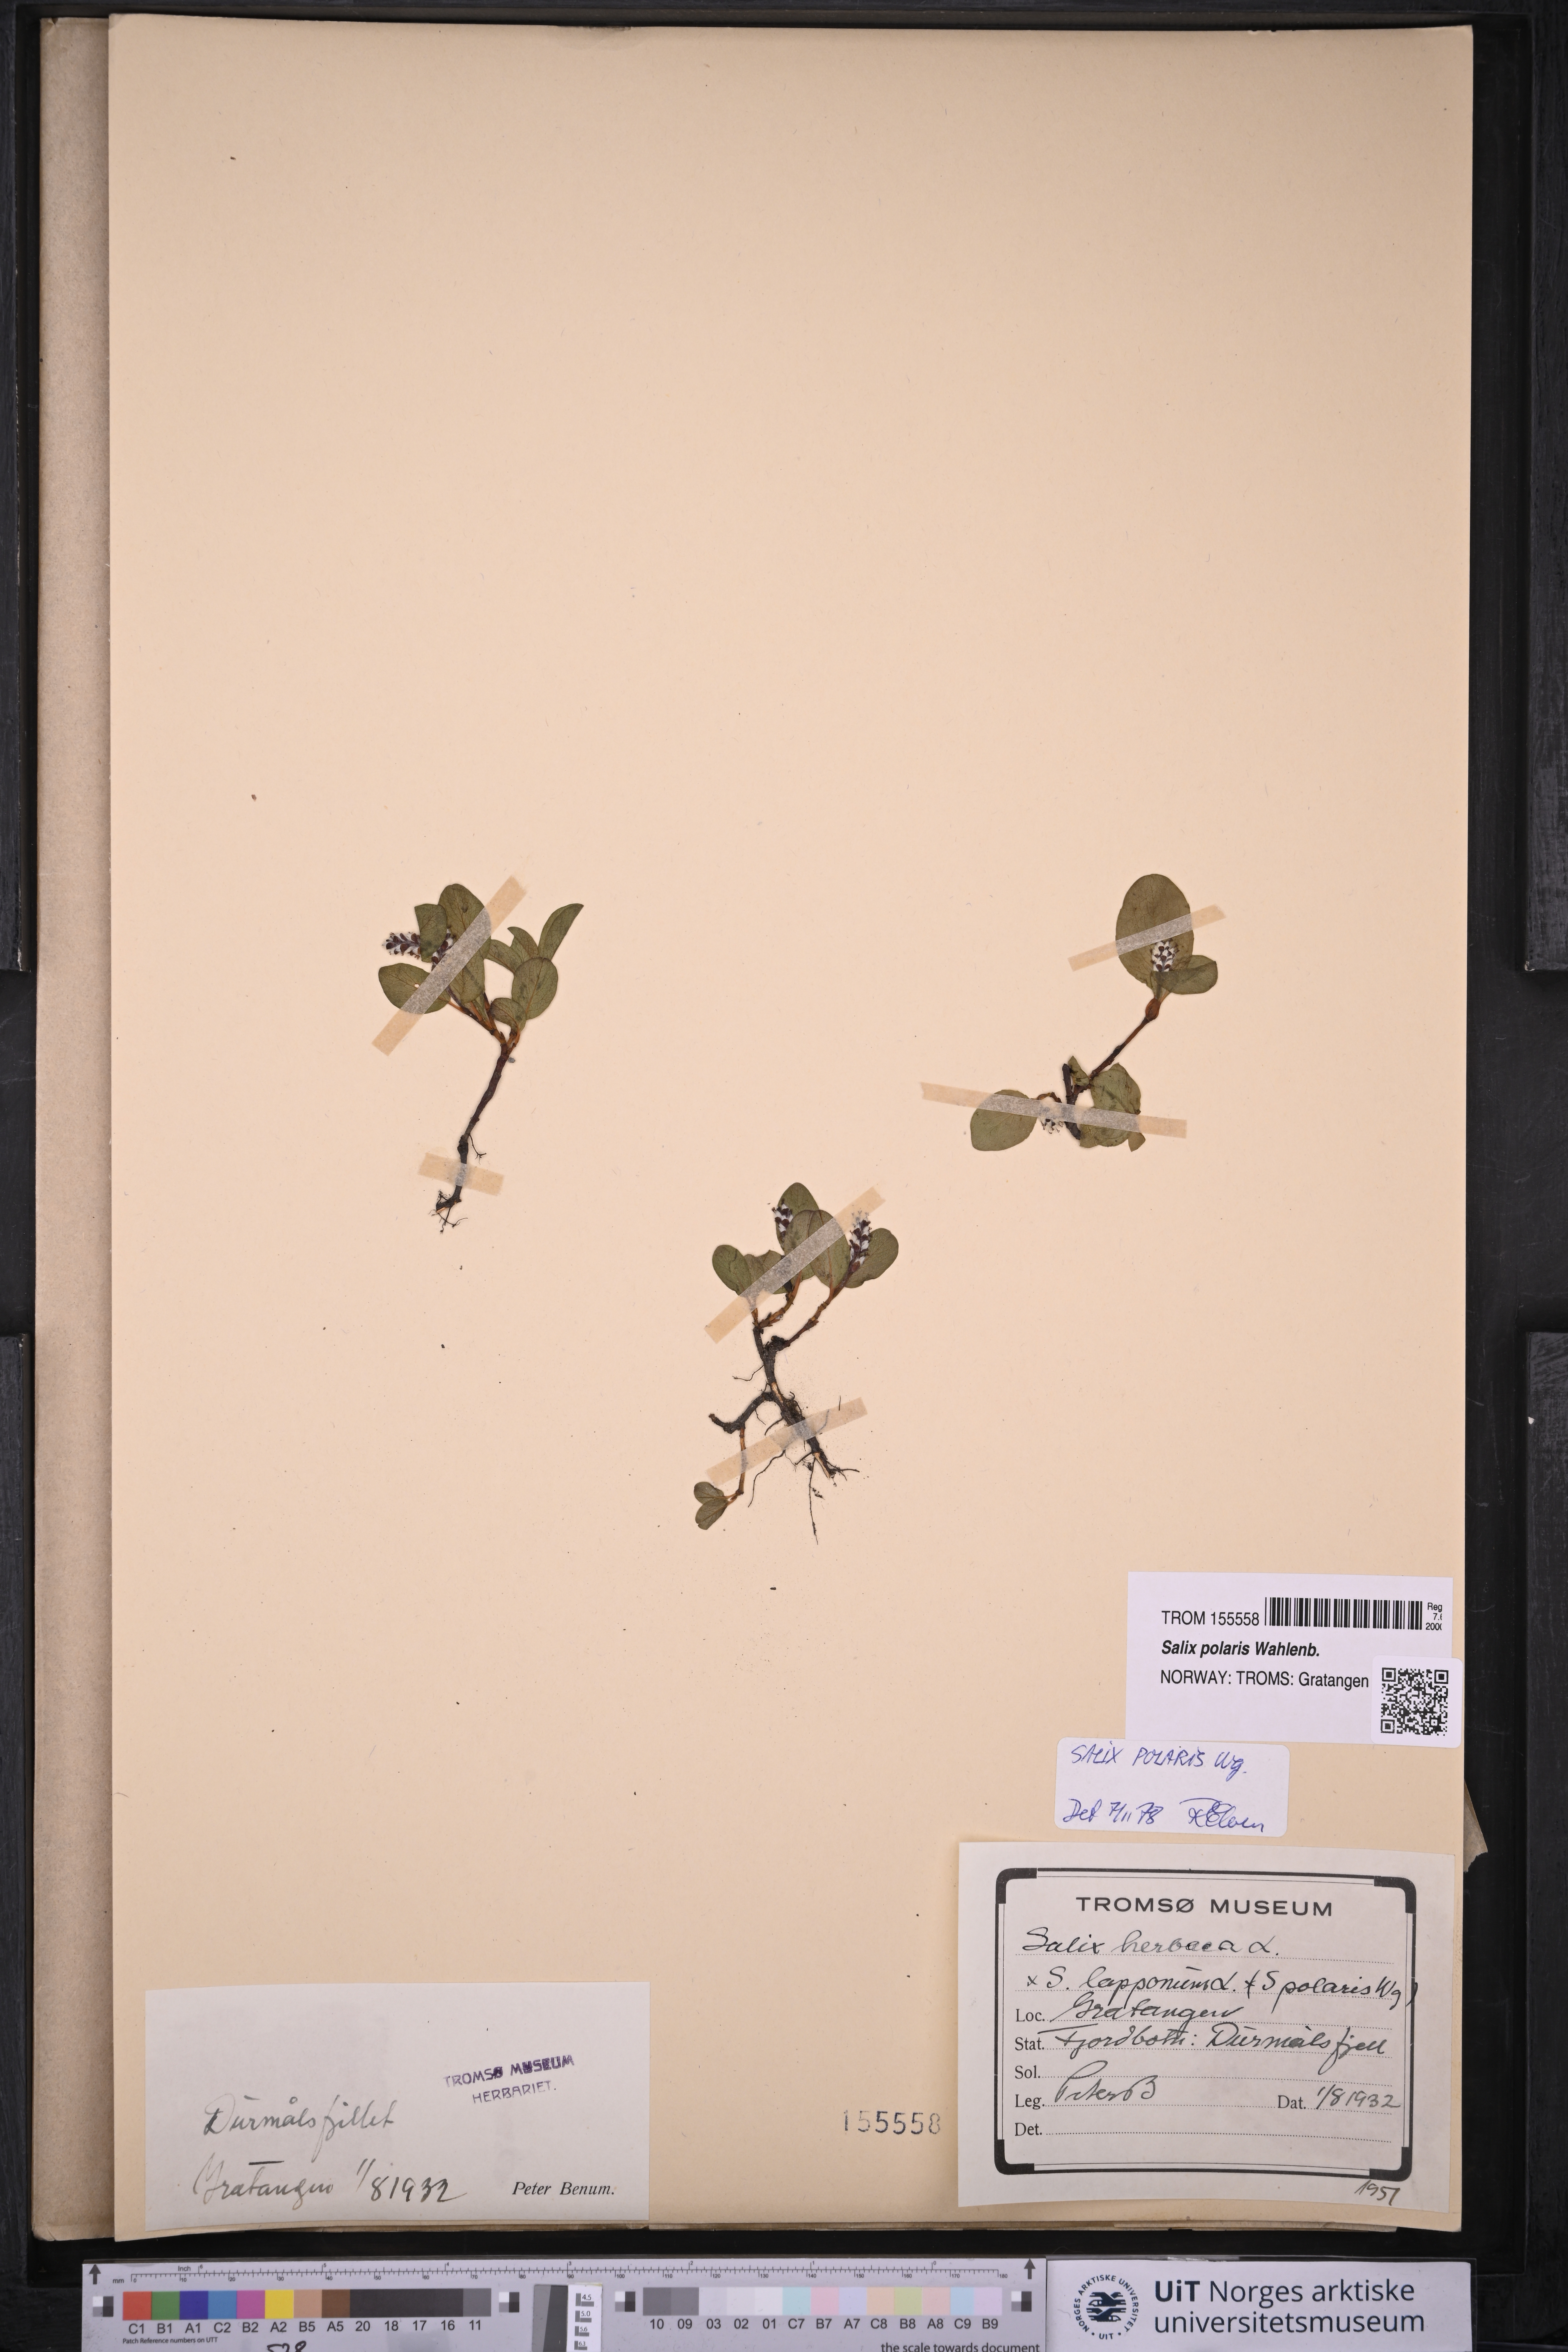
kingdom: Plantae
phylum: Tracheophyta
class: Magnoliopsida
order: Malpighiales
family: Salicaceae
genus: Salix
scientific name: Salix polaris
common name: Polar willow
